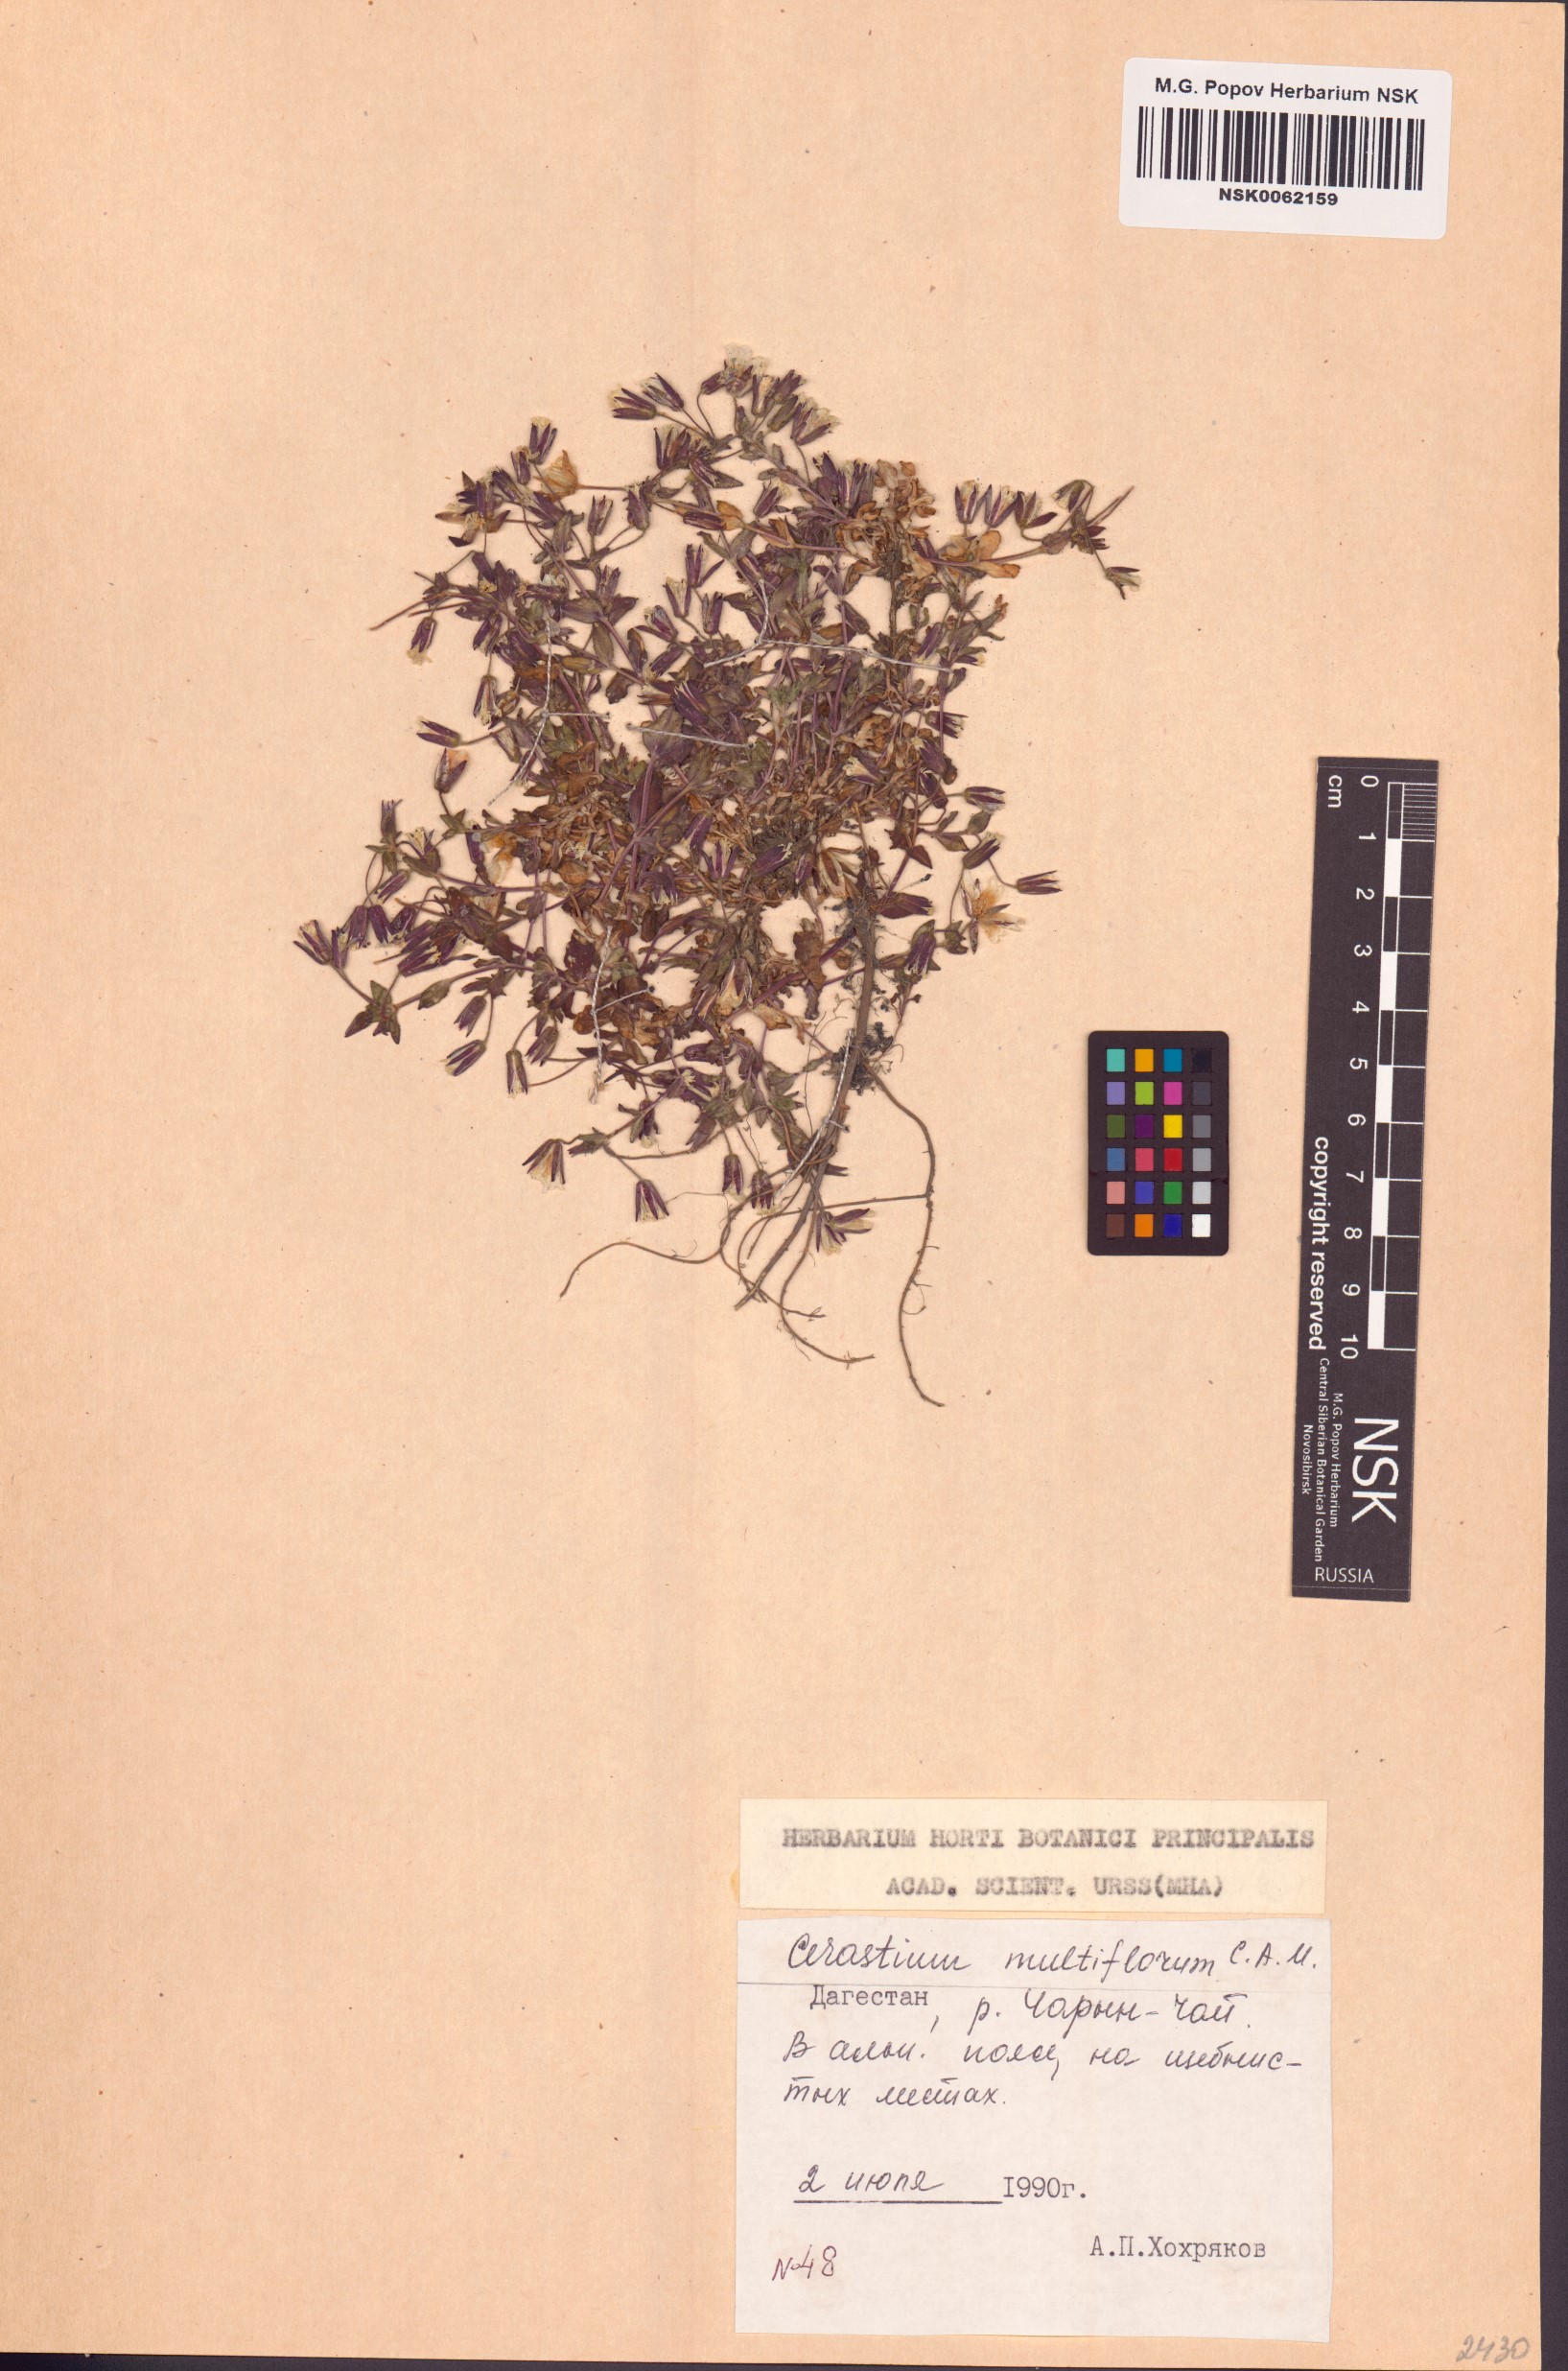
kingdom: Plantae
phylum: Tracheophyta
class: Magnoliopsida
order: Caryophyllales
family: Caryophyllaceae
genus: Cerastium
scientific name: Cerastium multiflorum
